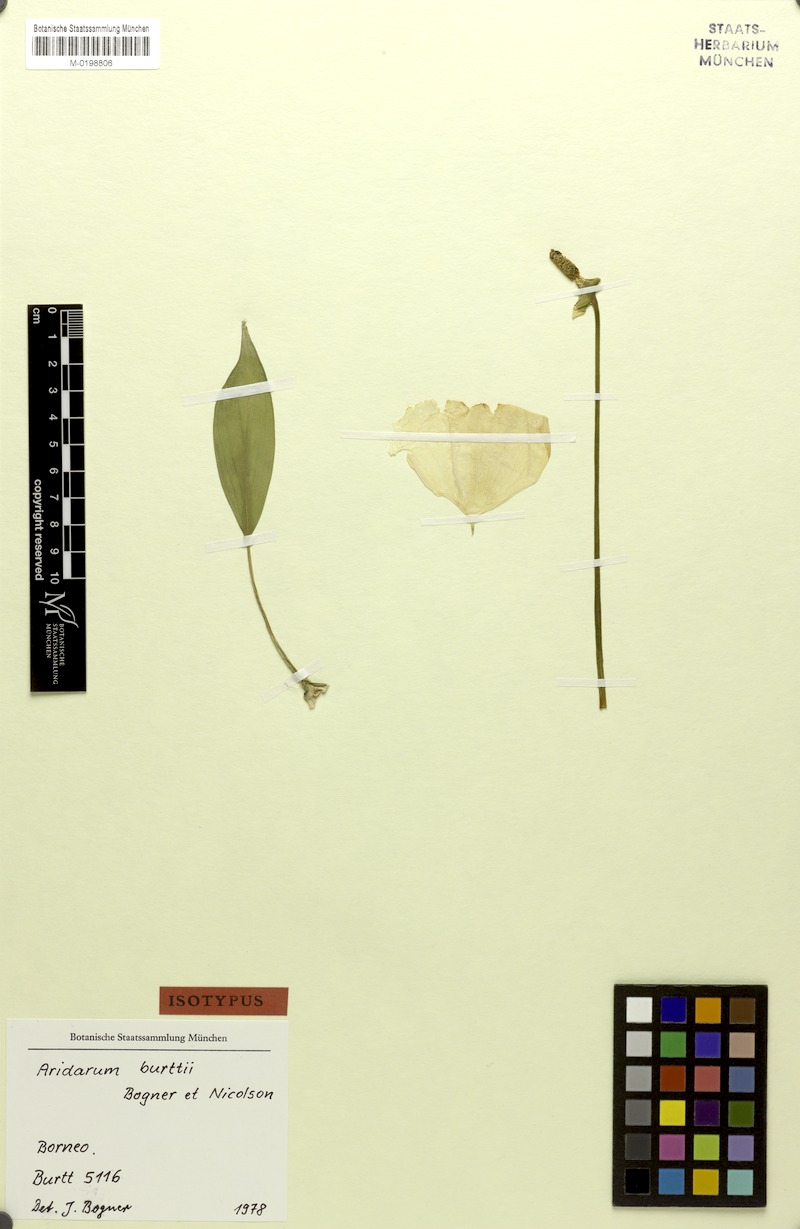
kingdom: Plantae
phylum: Tracheophyta
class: Liliopsida
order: Alismatales
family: Araceae
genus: Pursegloveia
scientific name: Pursegloveia burttii
